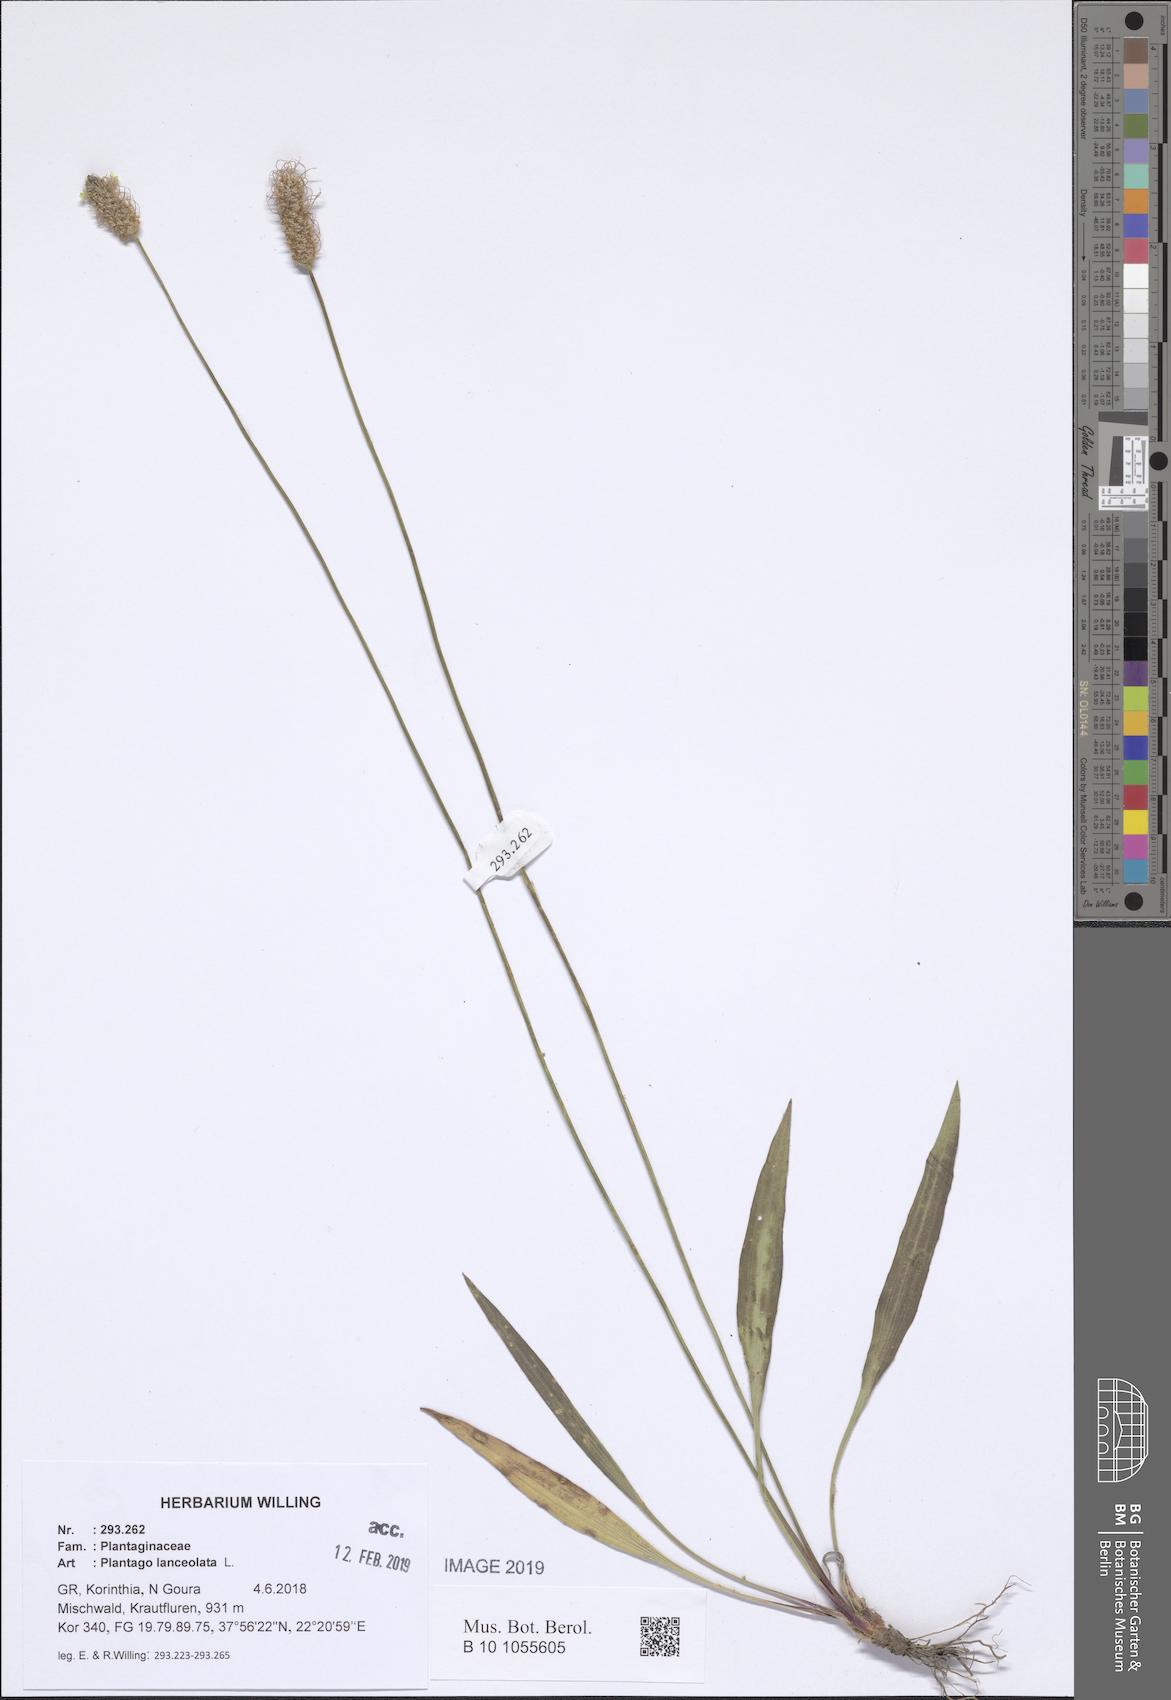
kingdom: Plantae
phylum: Tracheophyta
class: Magnoliopsida
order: Lamiales
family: Plantaginaceae
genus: Plantago
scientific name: Plantago lanceolata
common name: Ribwort plantain
